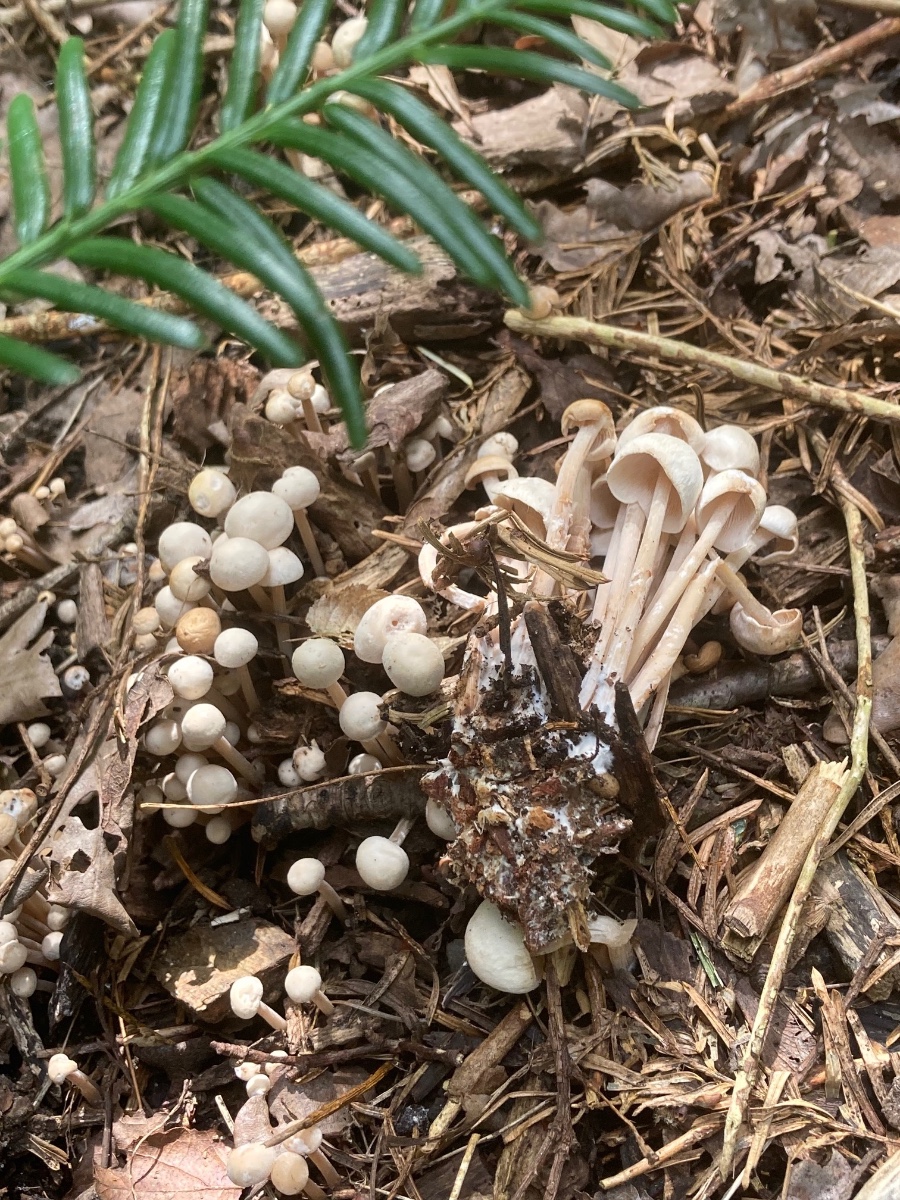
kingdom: Fungi
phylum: Basidiomycota
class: Agaricomycetes
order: Agaricales
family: Omphalotaceae
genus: Collybiopsis
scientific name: Collybiopsis confluens
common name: knippe-fladhat
